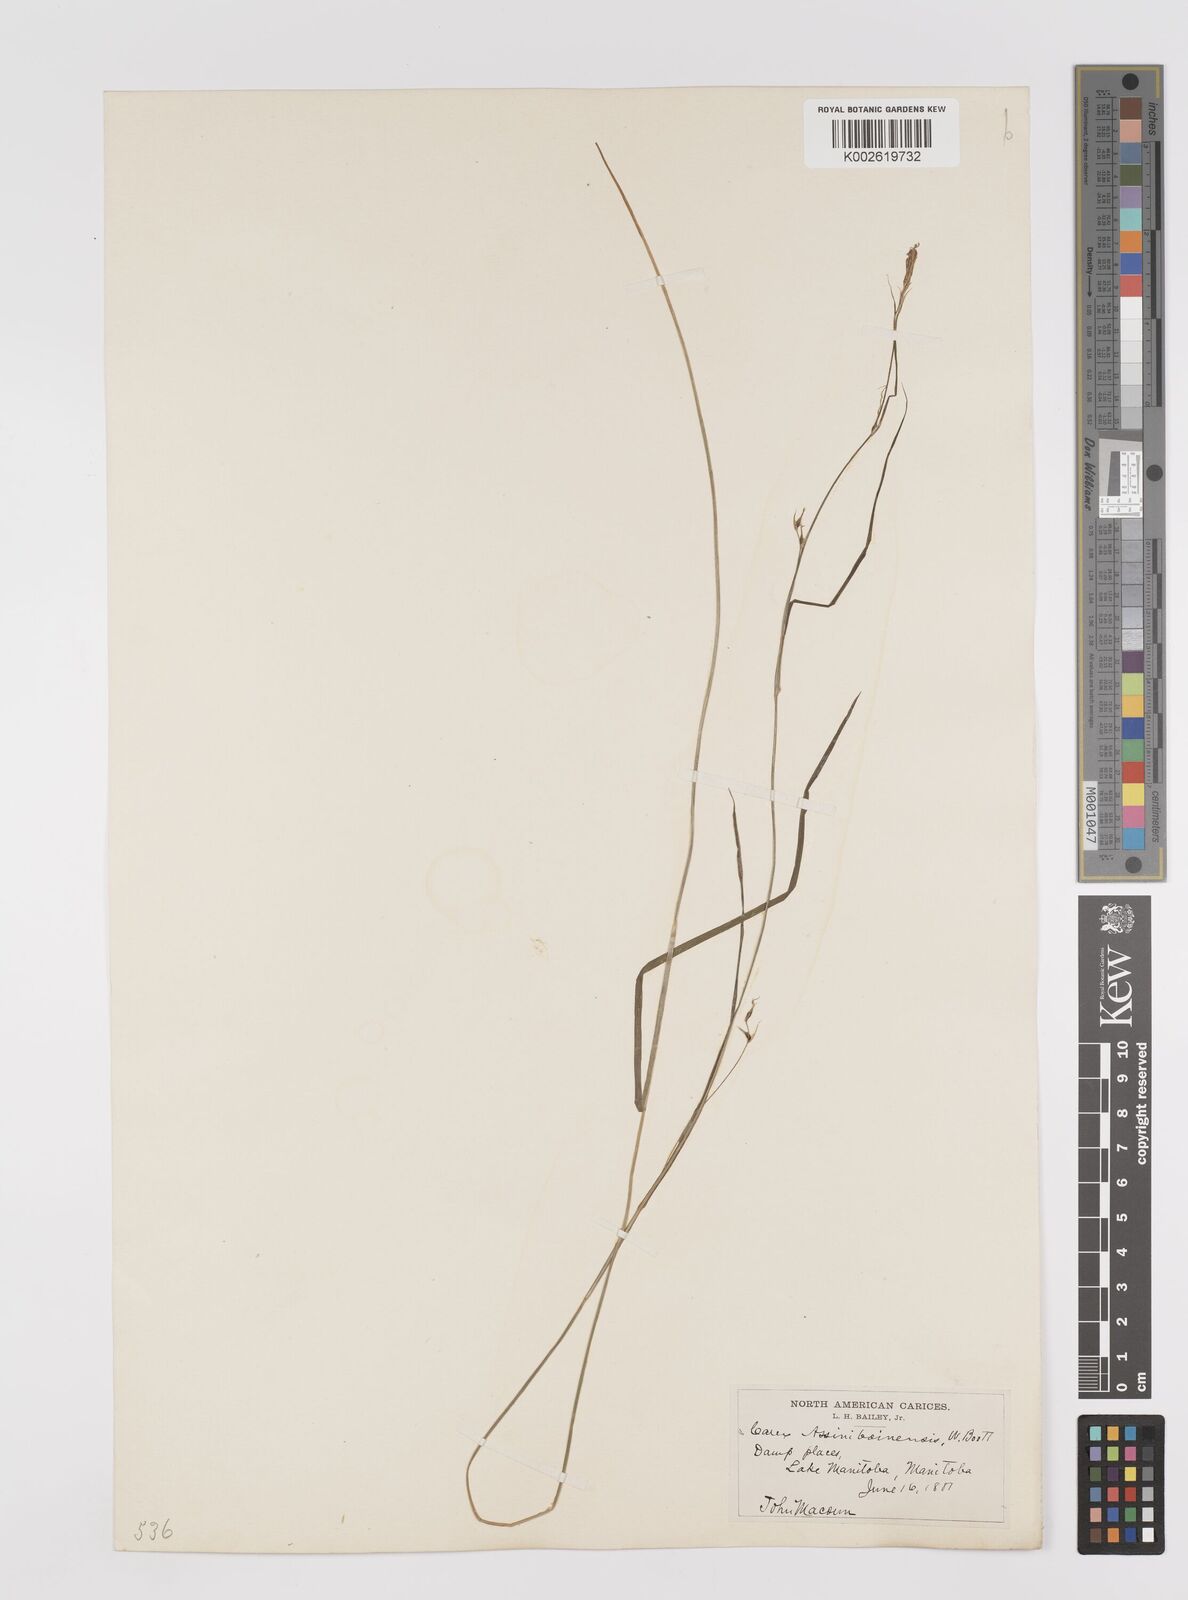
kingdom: Plantae
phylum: Tracheophyta
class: Liliopsida
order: Poales
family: Cyperaceae
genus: Carex
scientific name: Carex assiniboinensis
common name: Assiniboia sedge
